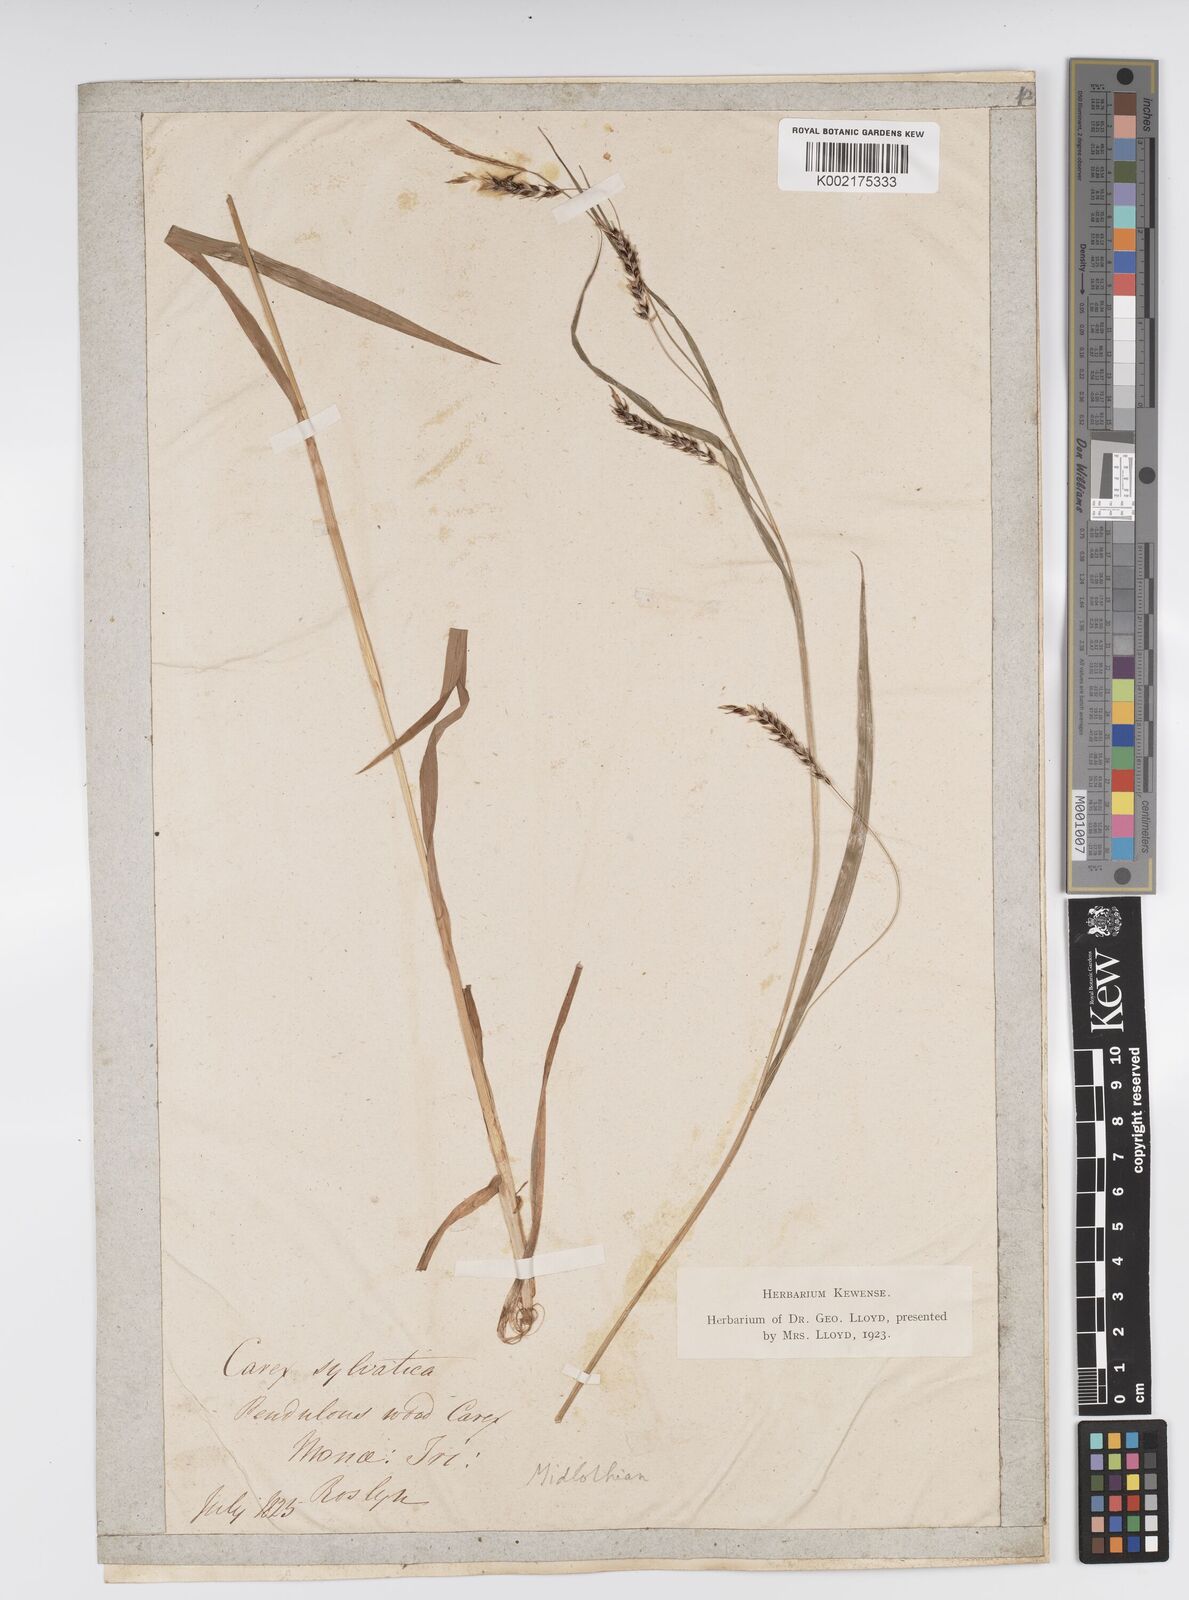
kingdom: Plantae
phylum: Tracheophyta
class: Liliopsida
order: Poales
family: Cyperaceae
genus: Carex
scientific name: Carex sylvatica
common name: Wood-sedge
